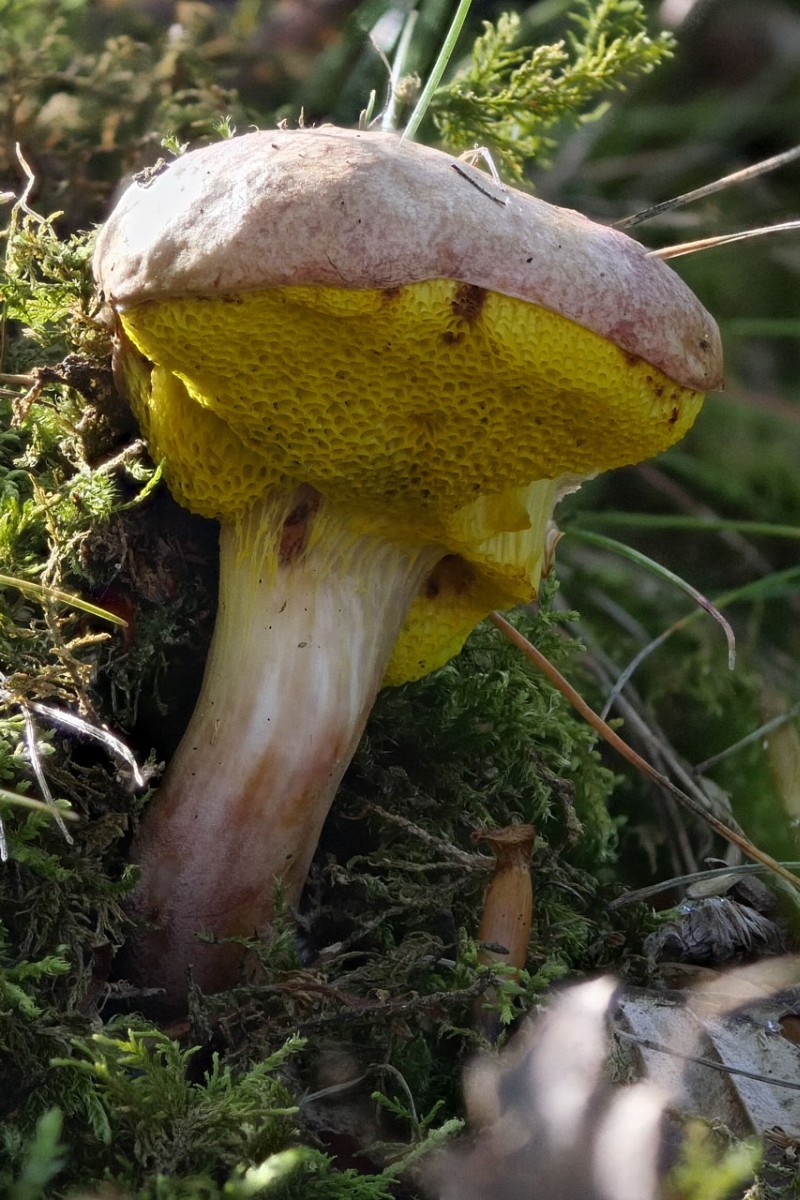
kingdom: Fungi
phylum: Basidiomycota
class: Agaricomycetes
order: Boletales
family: Boletaceae
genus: Aureoboletus
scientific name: Aureoboletus
